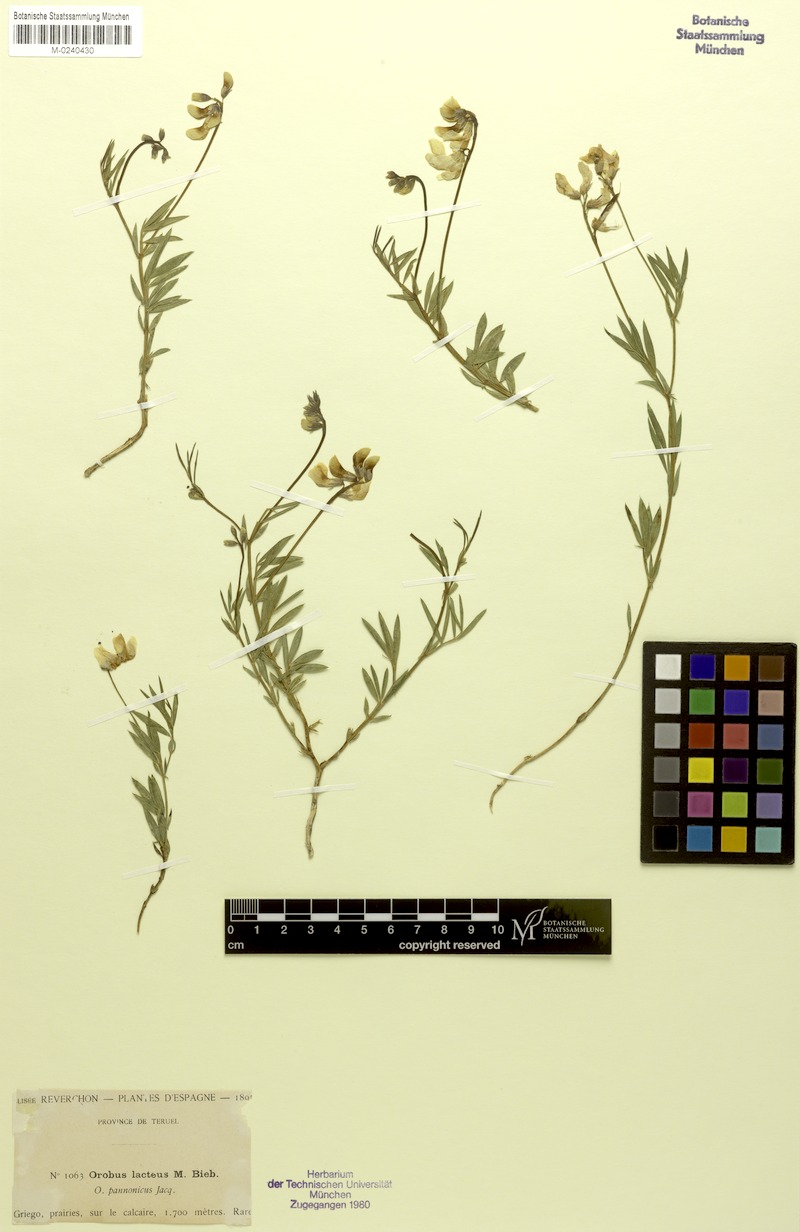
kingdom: Plantae
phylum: Tracheophyta
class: Magnoliopsida
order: Fabales
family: Fabaceae
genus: Lathyrus
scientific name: Lathyrus pannonicus
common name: Pea
